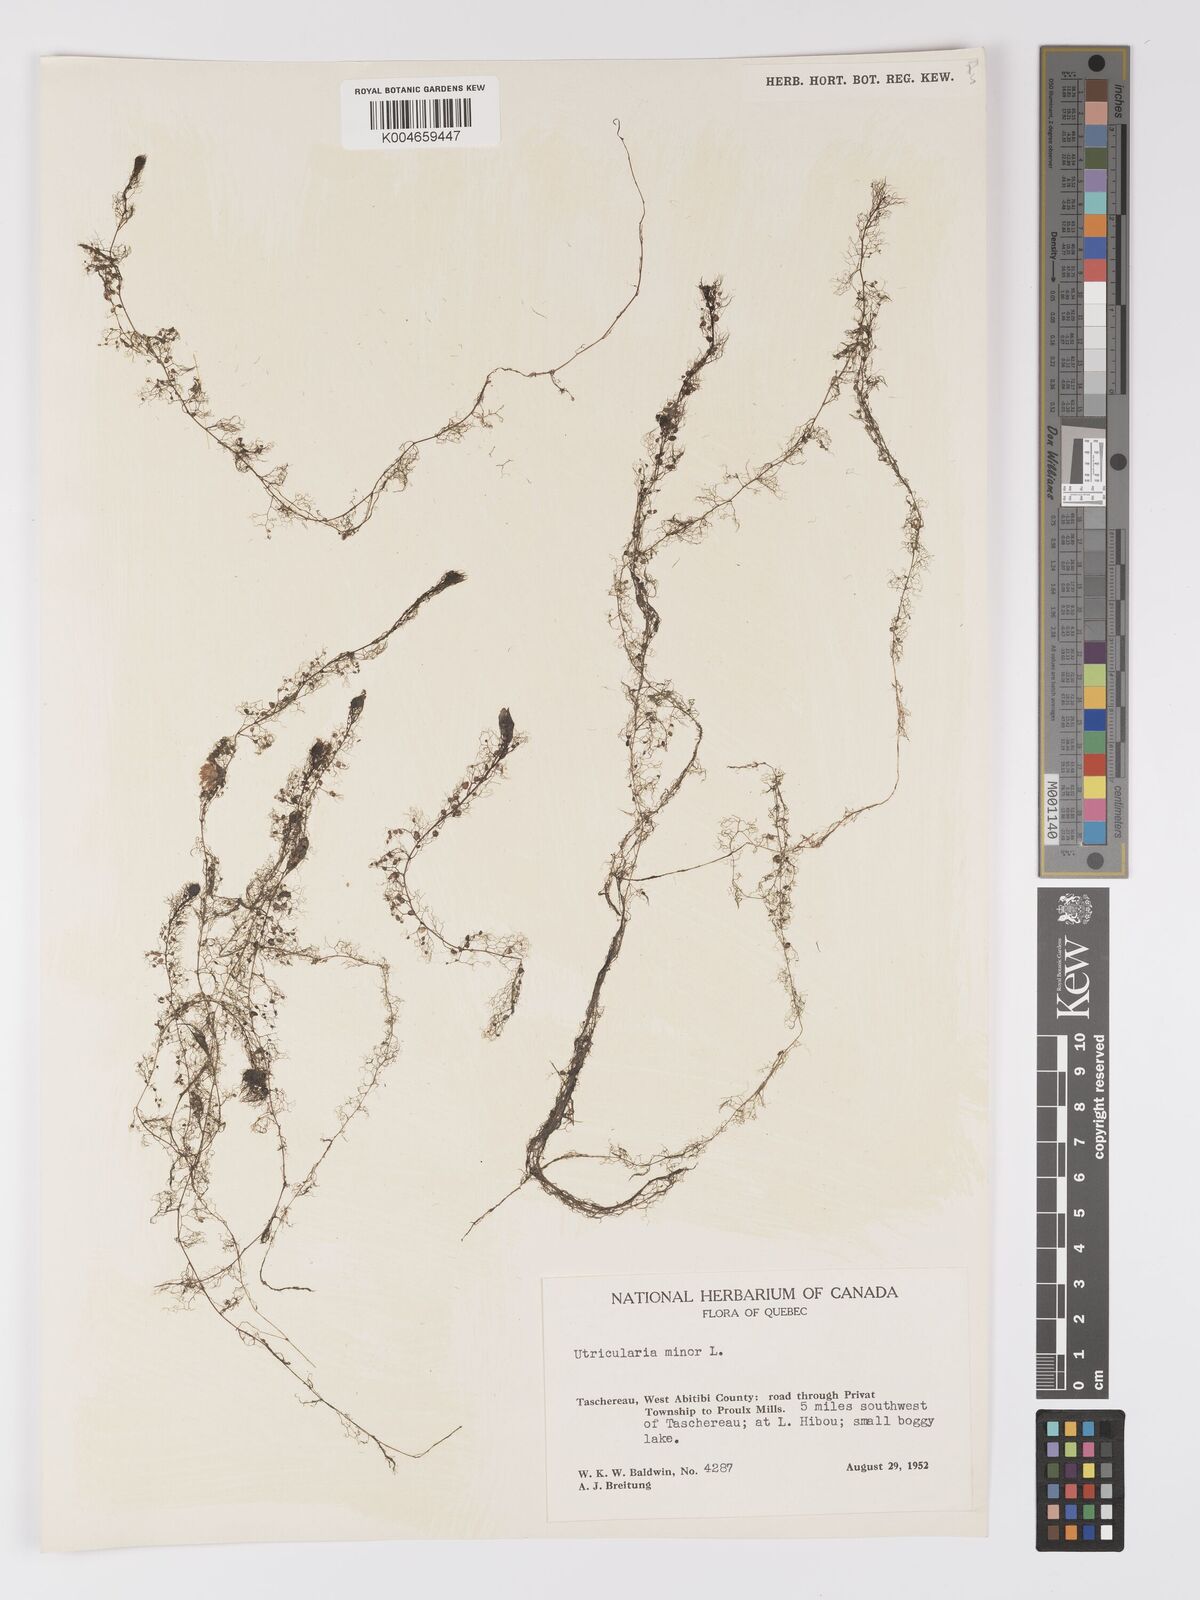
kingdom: Plantae
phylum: Tracheophyta
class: Magnoliopsida
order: Lamiales
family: Lentibulariaceae
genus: Utricularia
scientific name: Utricularia minor
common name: Lesser bladderwort
